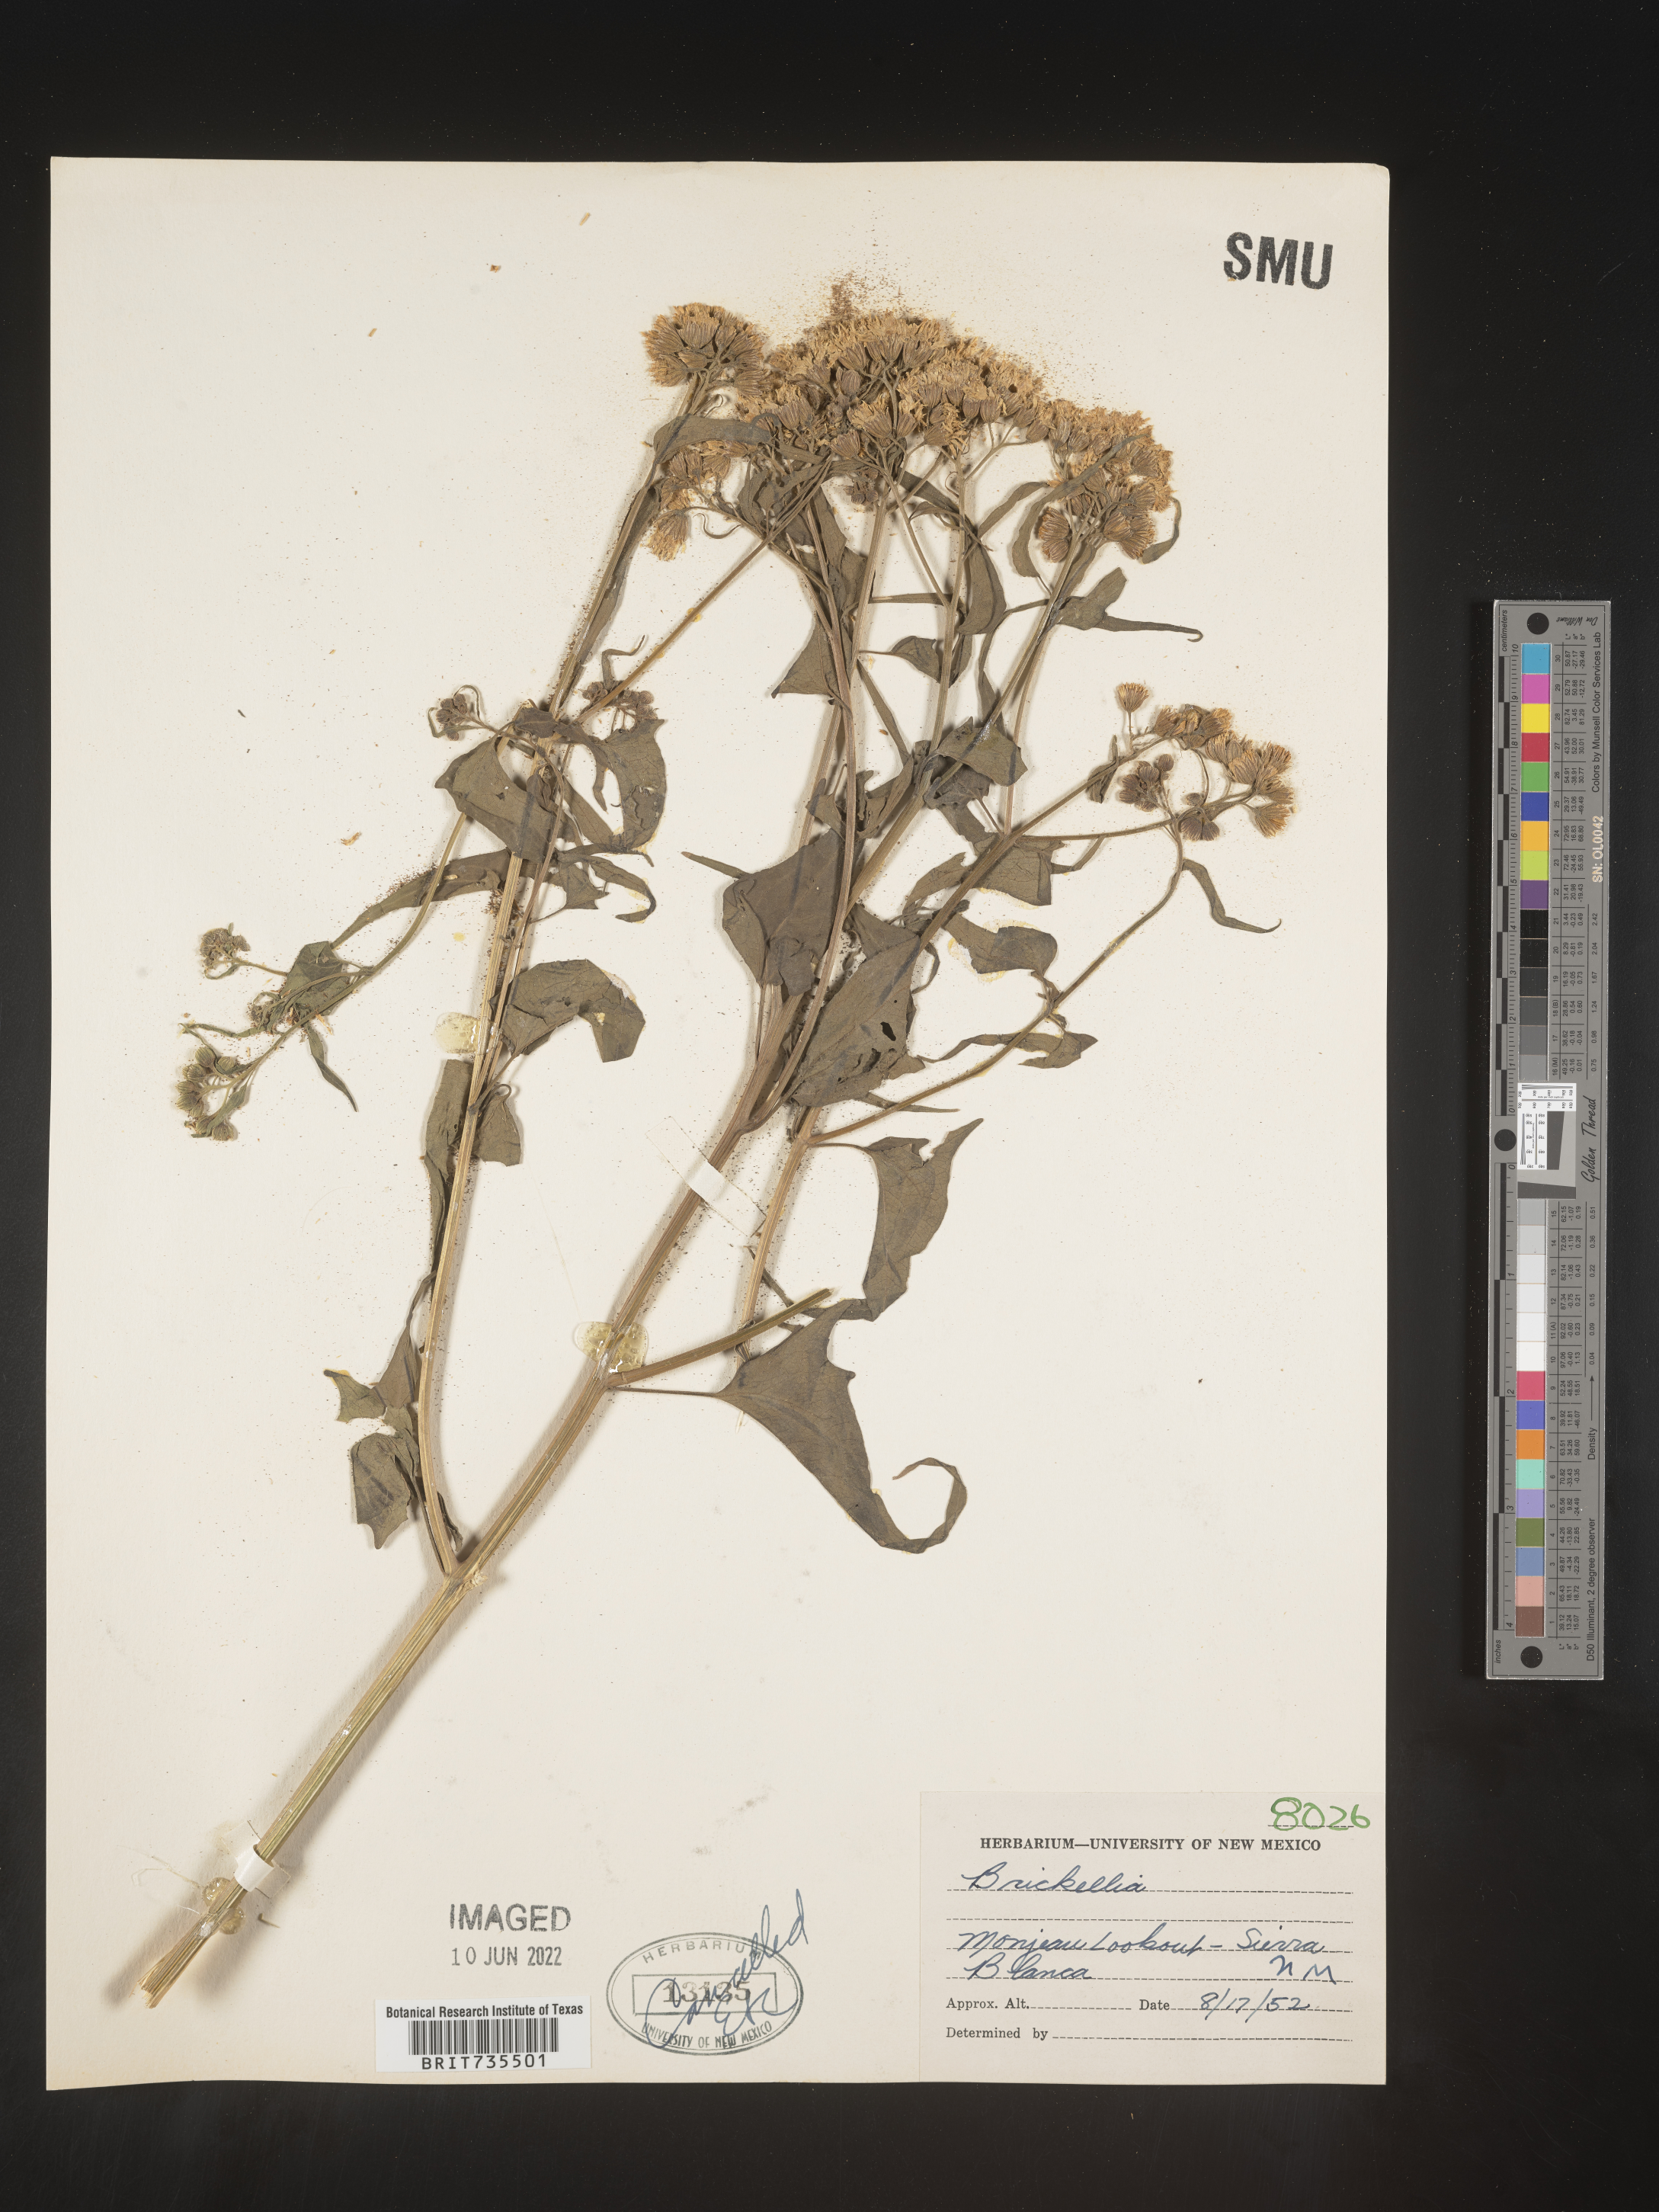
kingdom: Plantae
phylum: Tracheophyta
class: Magnoliopsida
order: Asterales
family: Asteraceae
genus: Pericome
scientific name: Pericome
